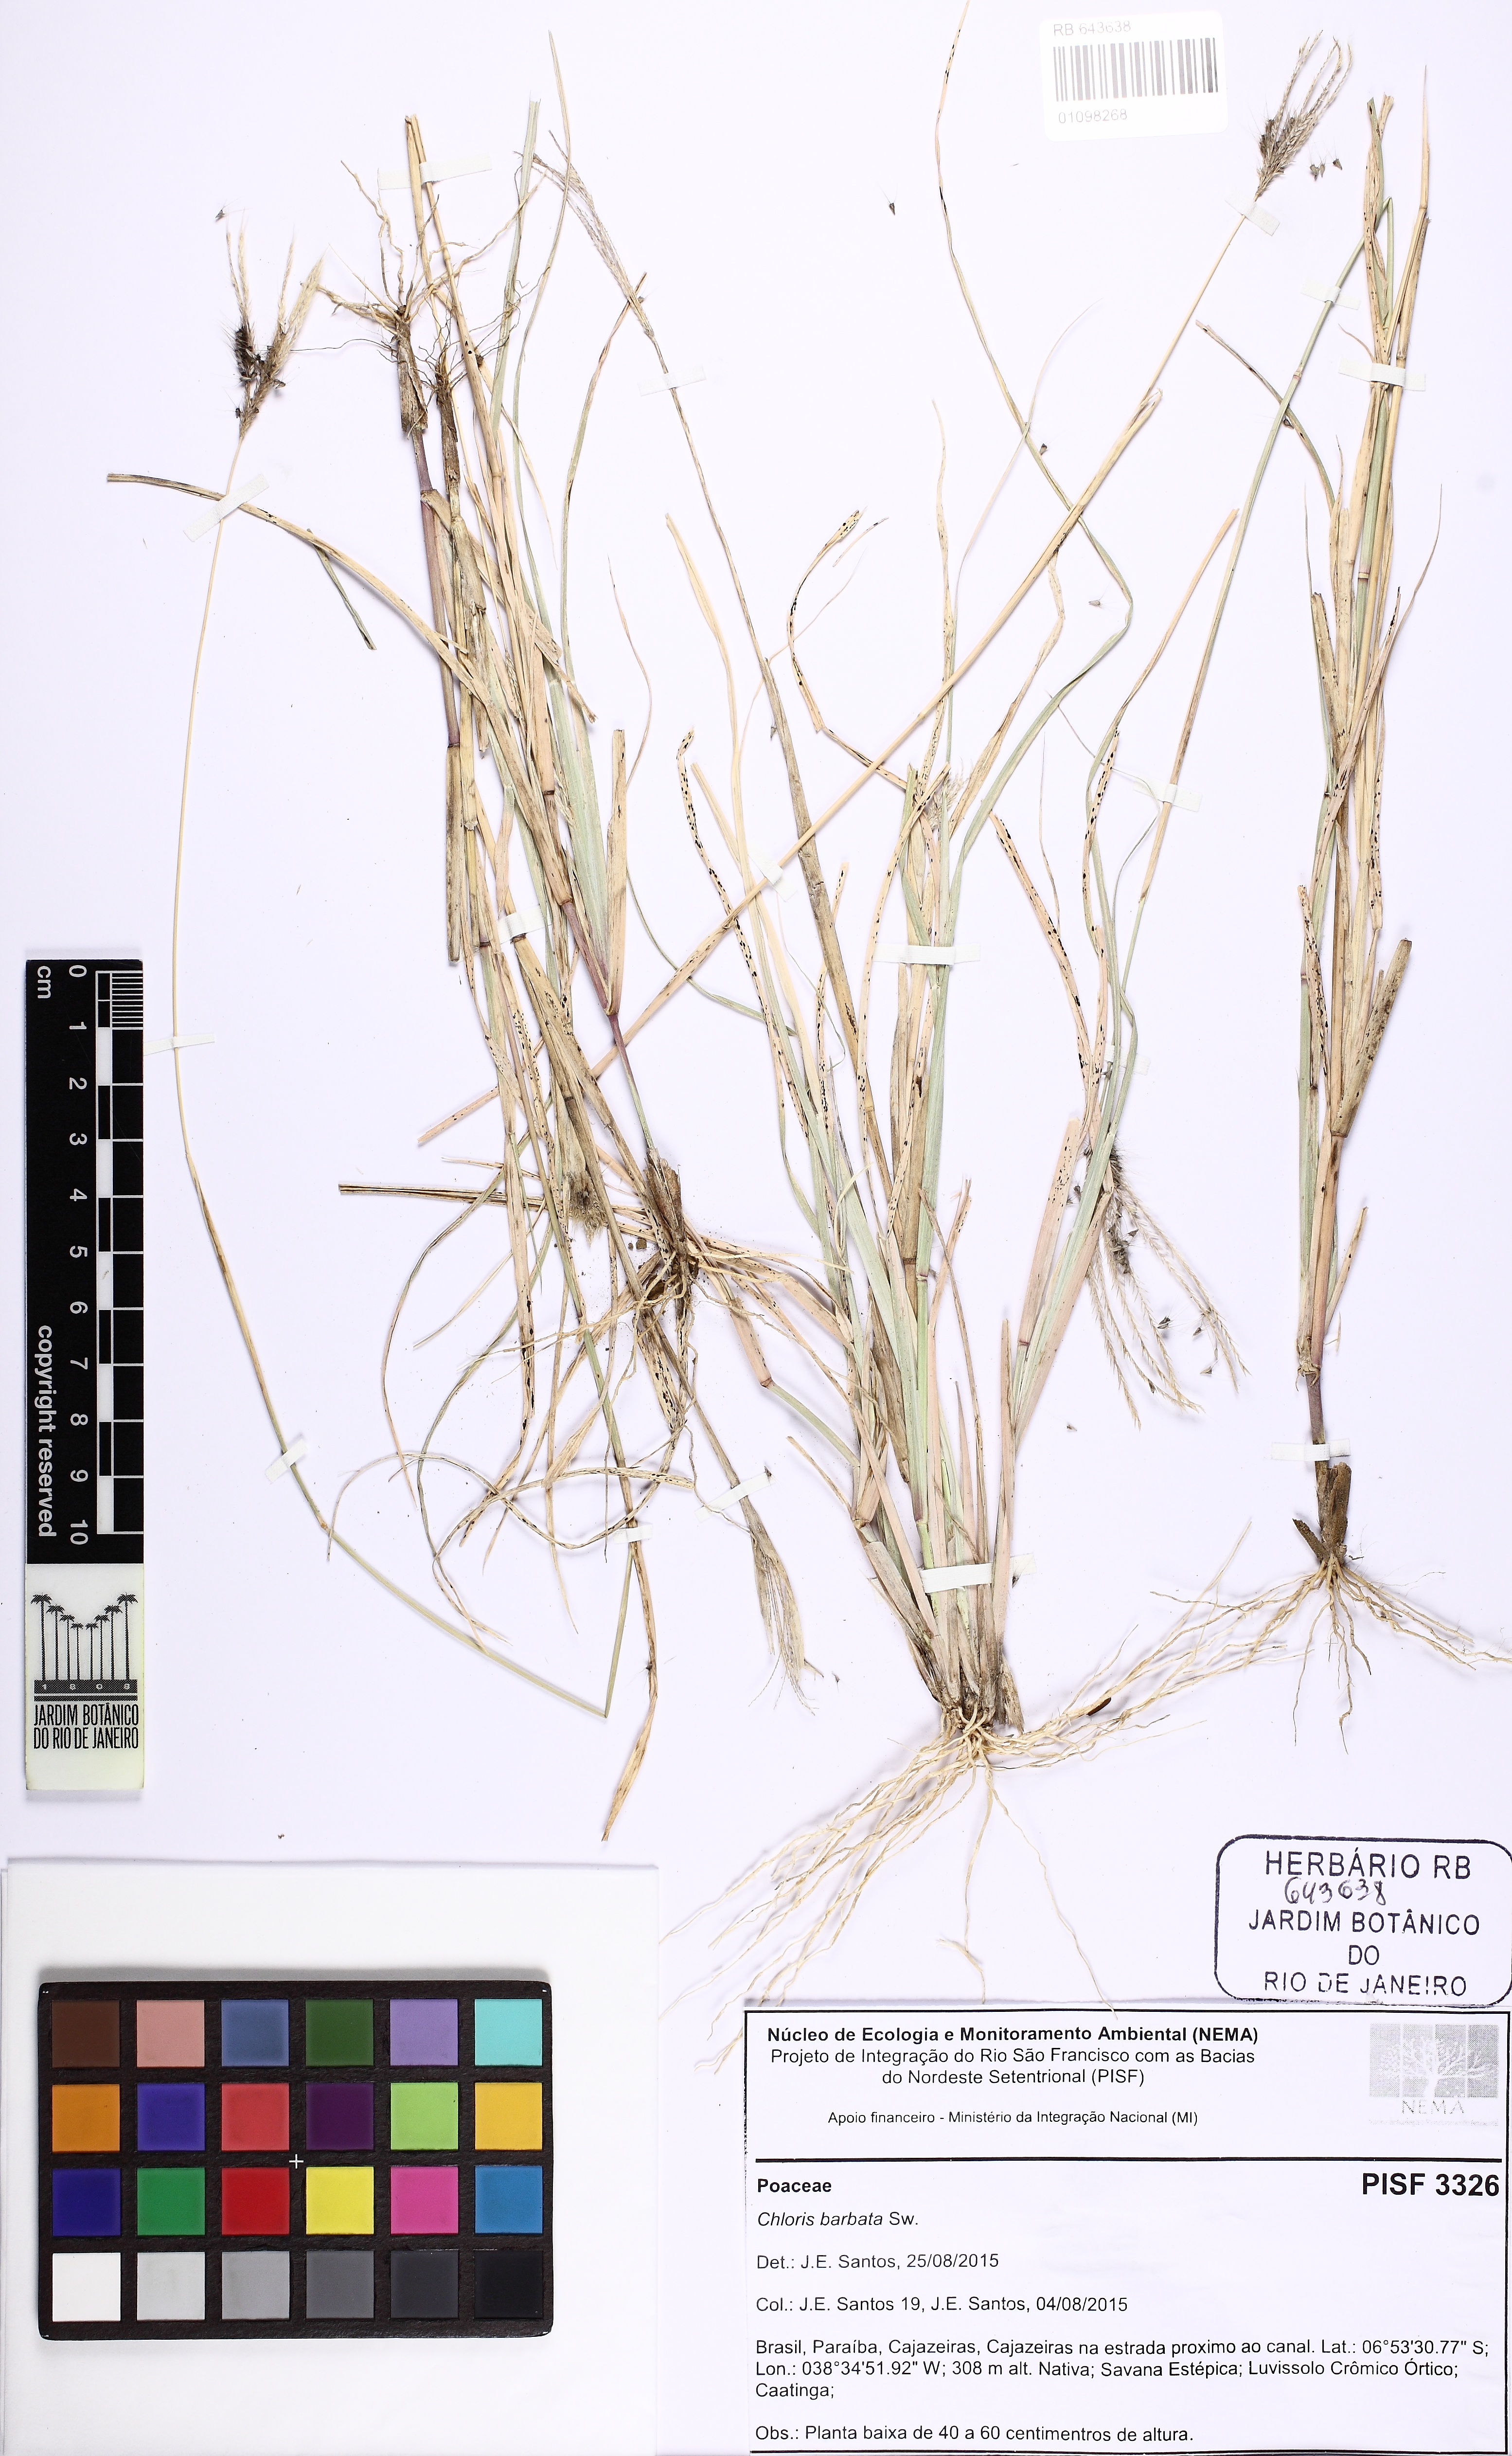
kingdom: Plantae
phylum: Tracheophyta
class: Liliopsida
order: Poales
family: Poaceae
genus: Chloris
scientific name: Chloris barbata
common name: Swollen fingergrass
